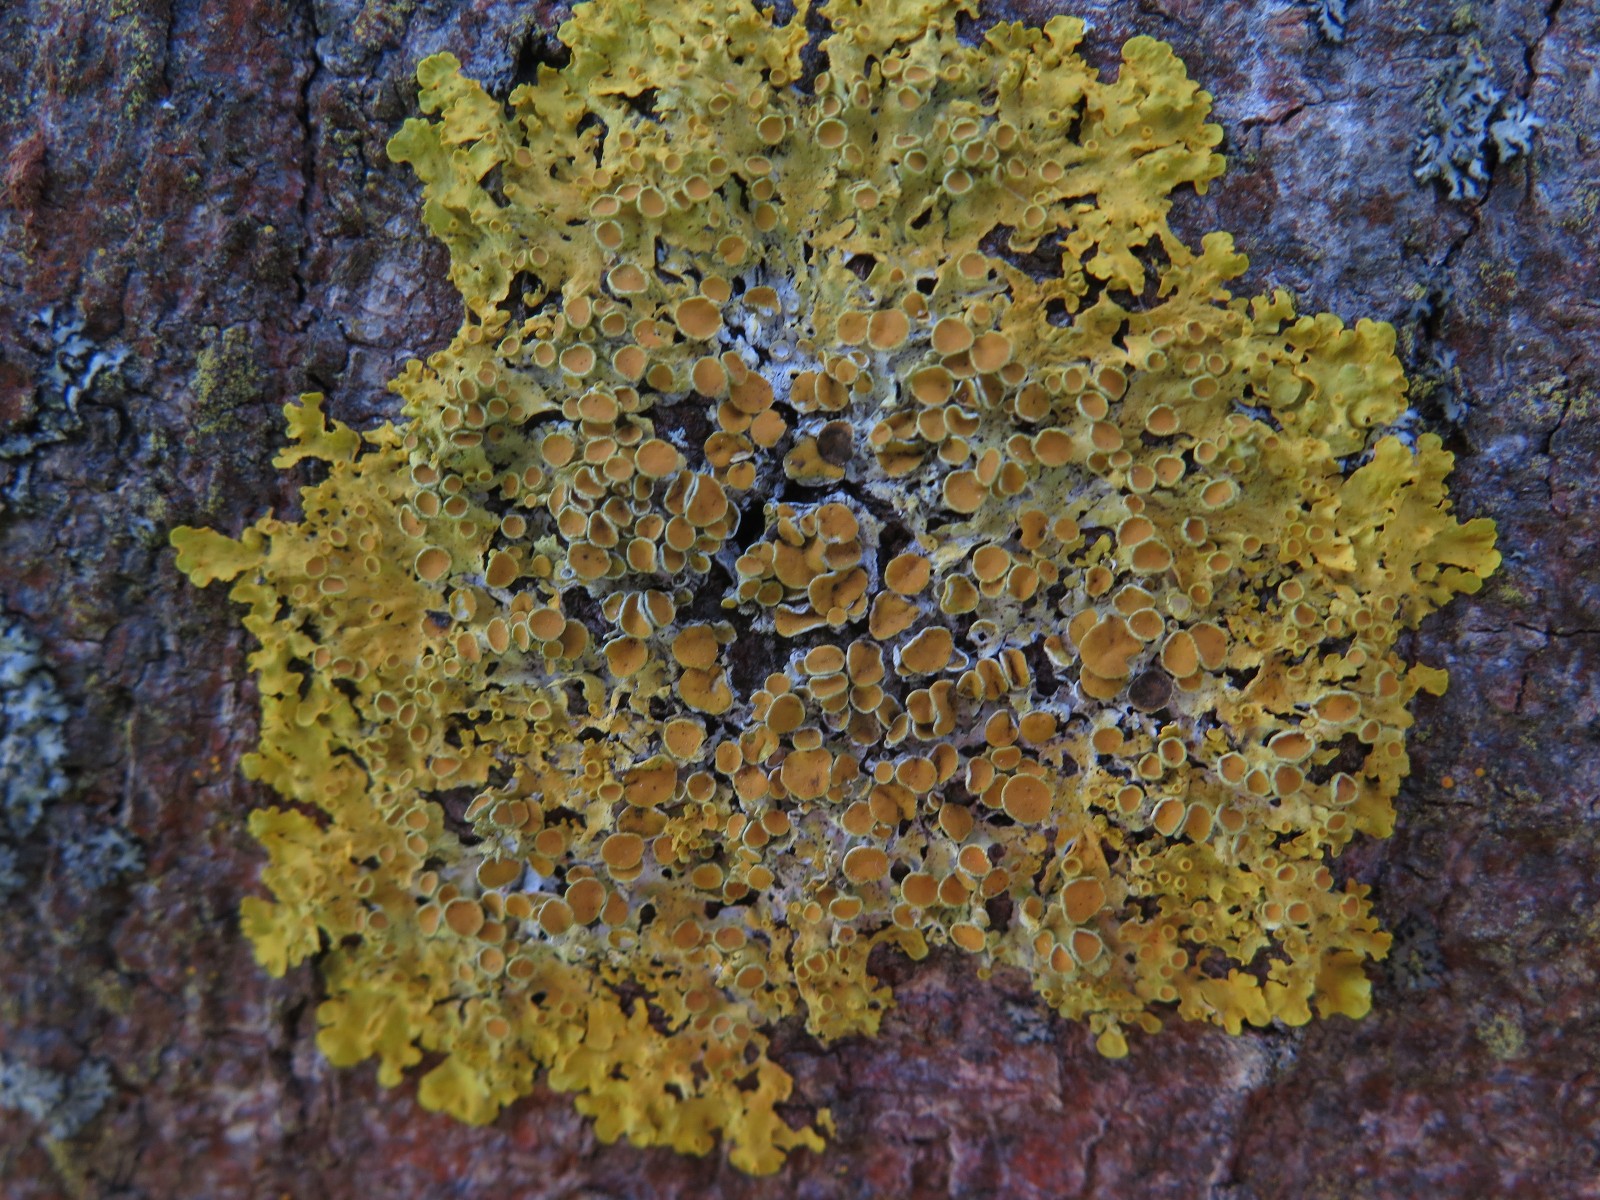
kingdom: Fungi
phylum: Ascomycota
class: Lecanoromycetes
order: Teloschistales
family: Teloschistaceae
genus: Xanthoria
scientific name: Xanthoria parietina
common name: almindelig væggelav
